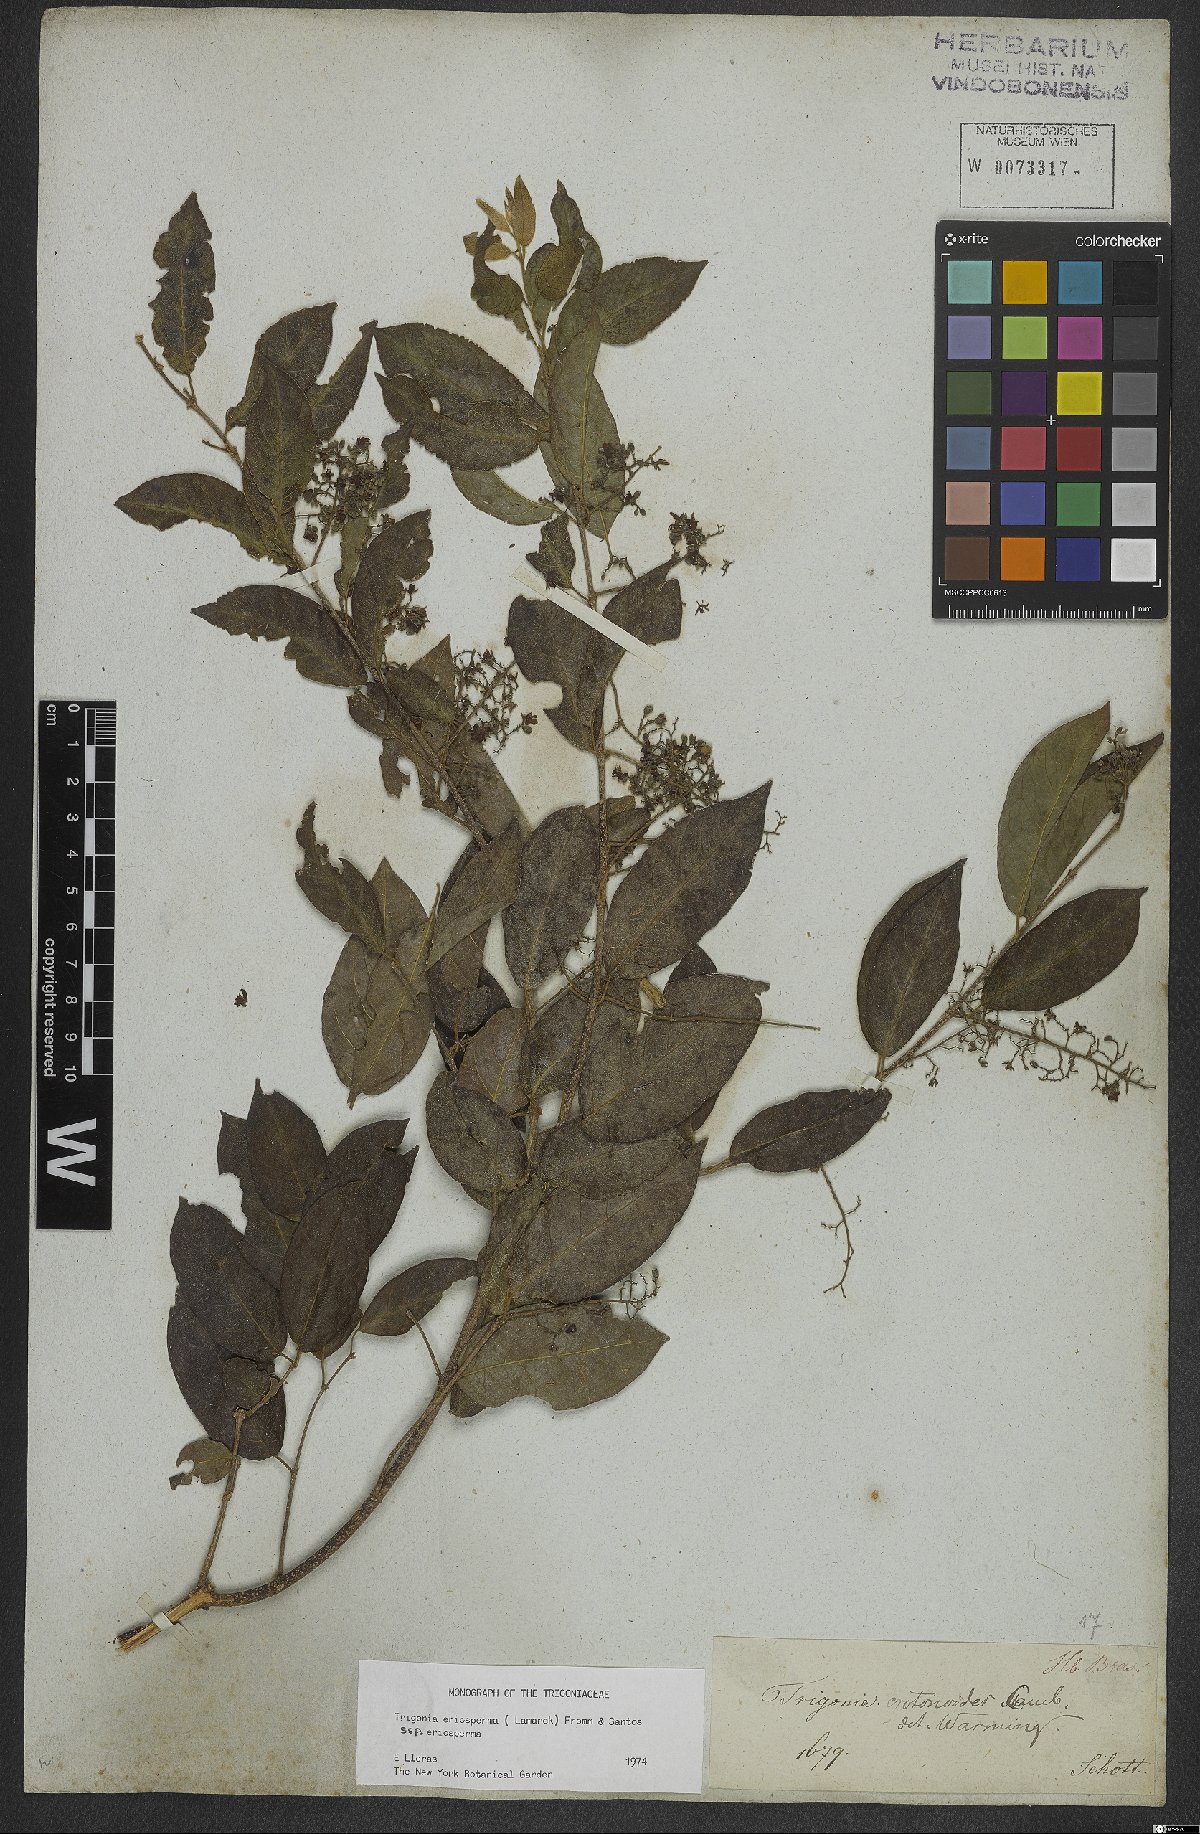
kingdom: Plantae
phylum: Tracheophyta
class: Magnoliopsida
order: Malpighiales
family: Trigoniaceae
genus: Trigonia
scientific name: Trigonia eriosperma
